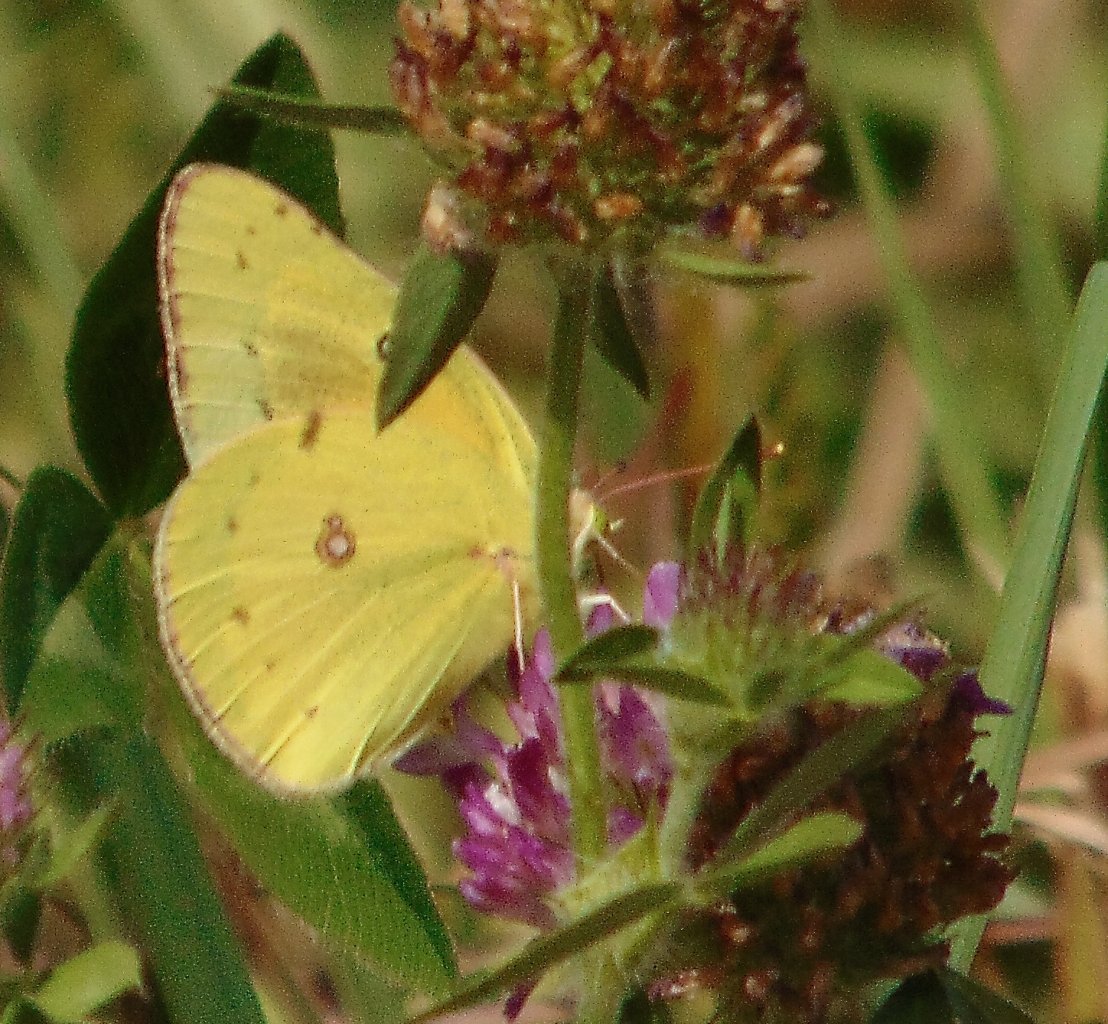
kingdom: Animalia
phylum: Arthropoda
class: Insecta
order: Lepidoptera
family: Pieridae
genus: Colias
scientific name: Colias eurytheme
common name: Orange Sulphur
